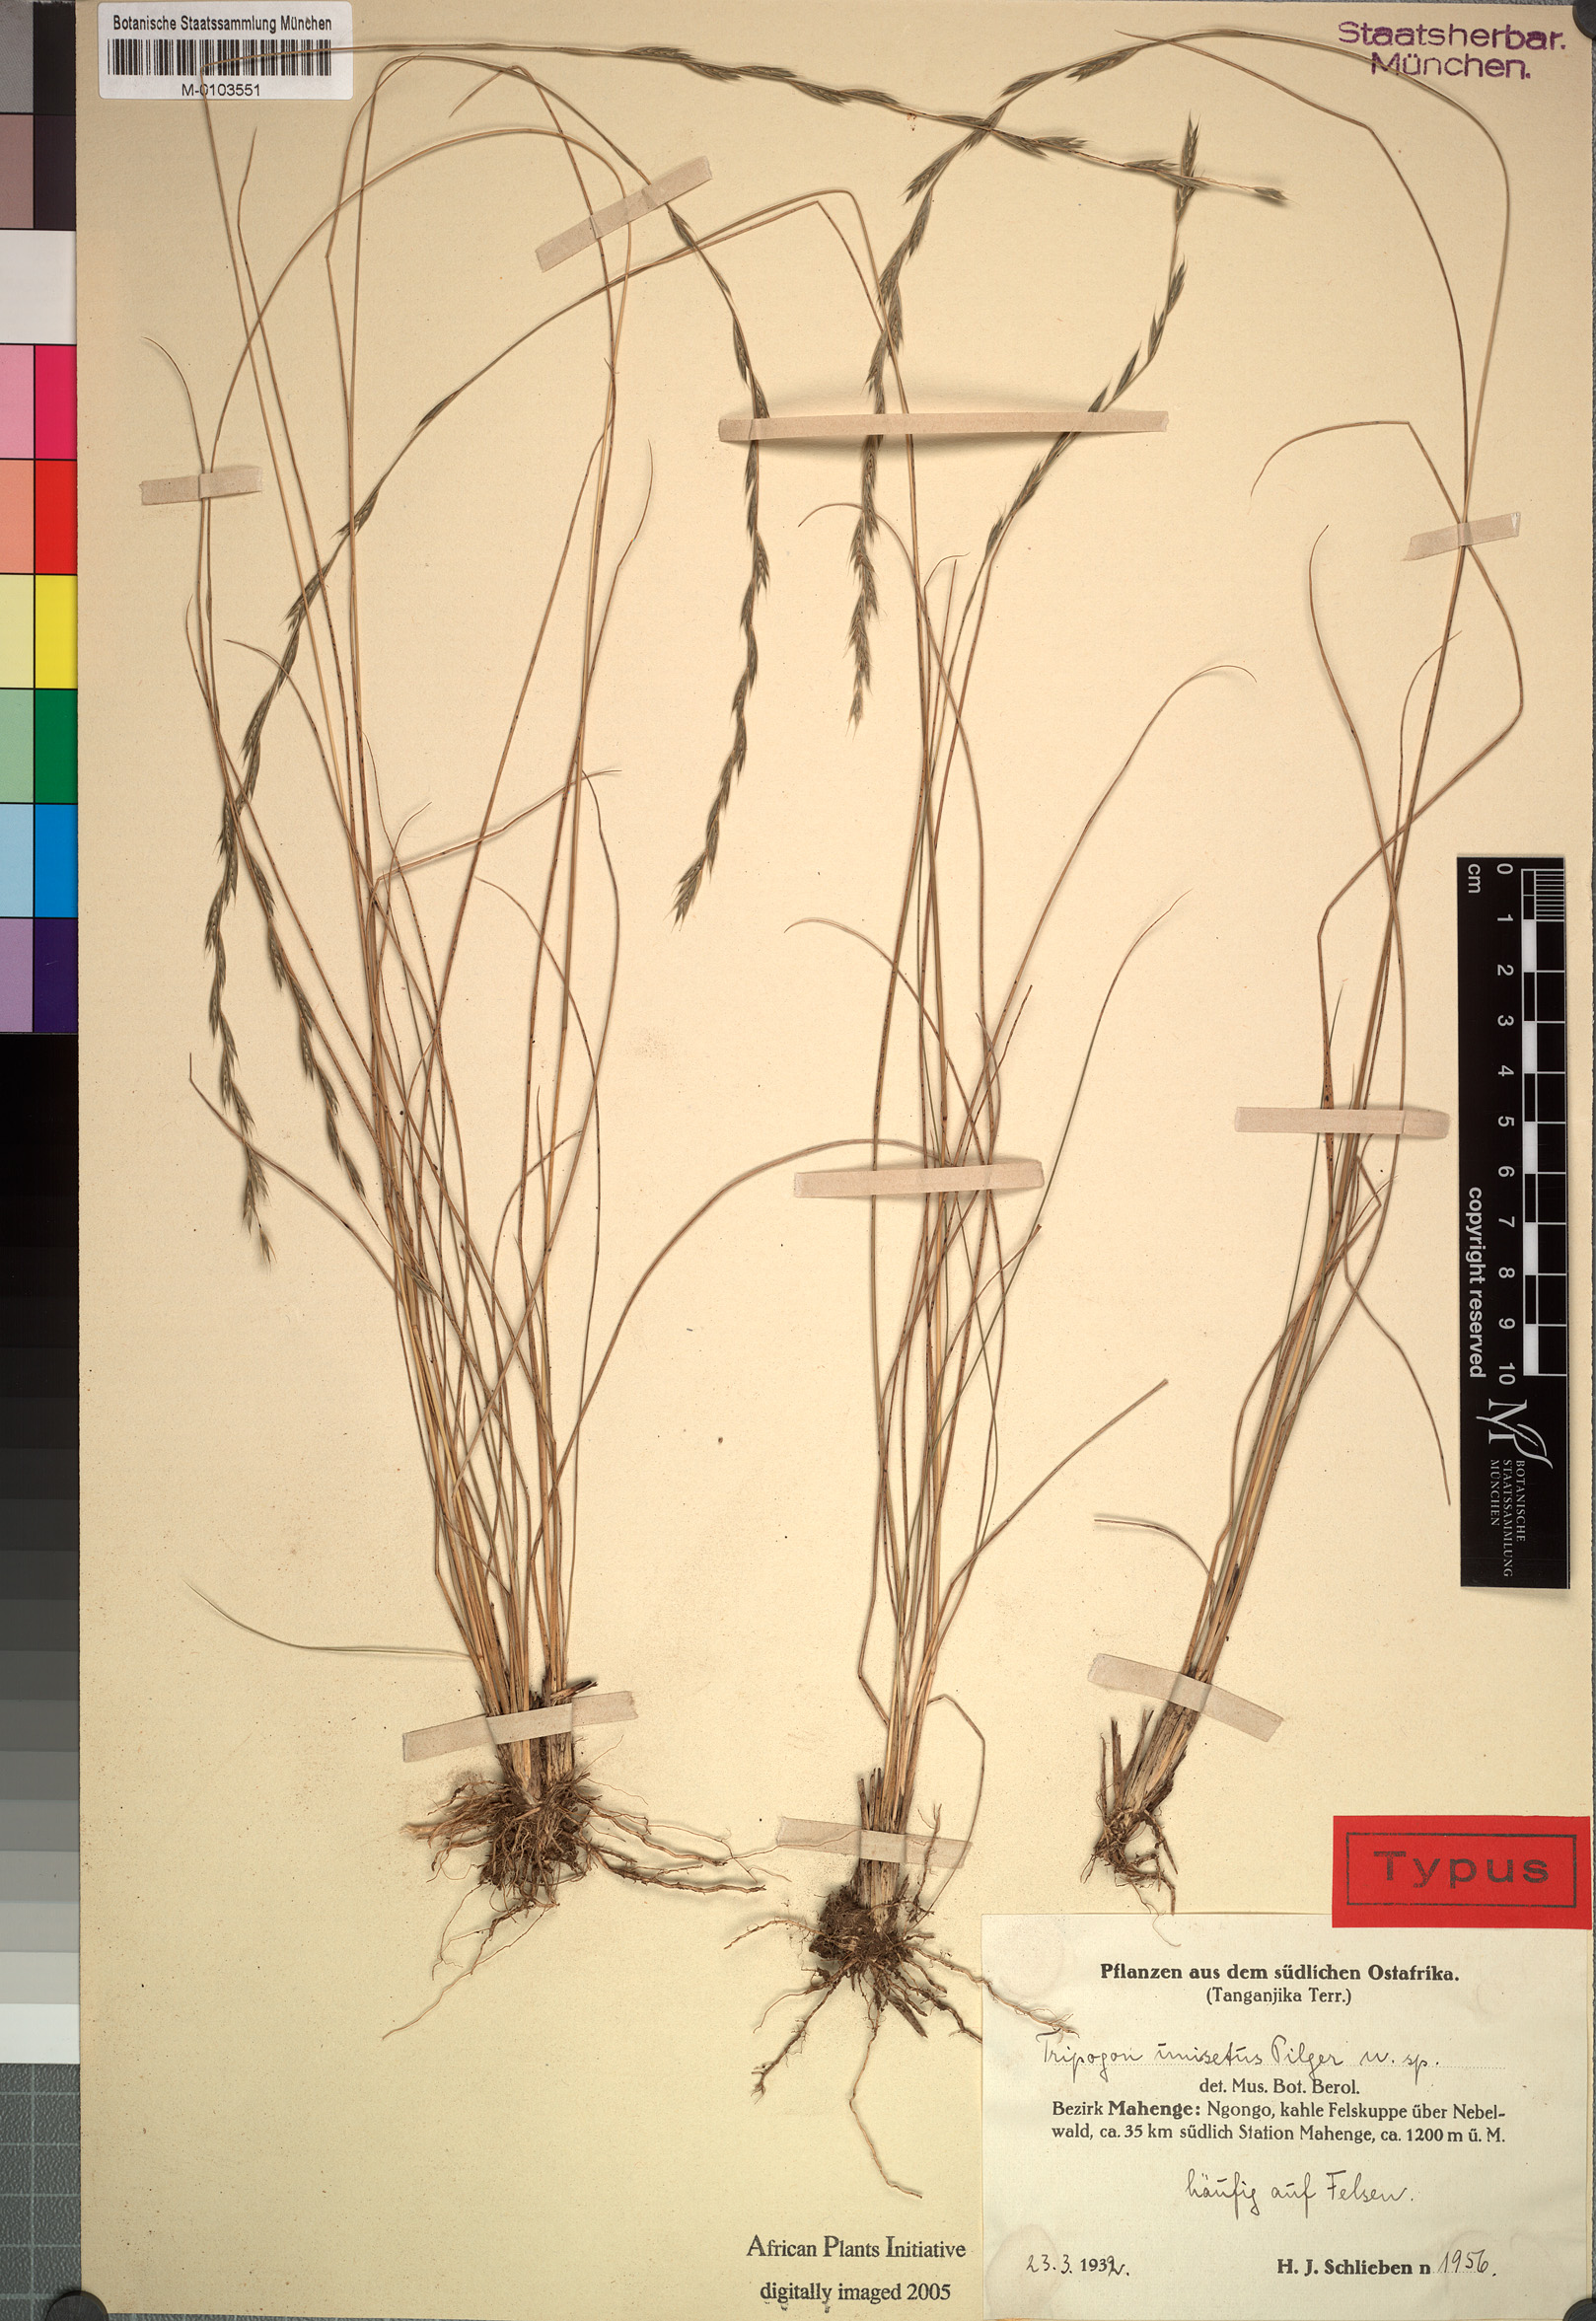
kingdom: Plantae
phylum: Tracheophyta
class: Liliopsida
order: Poales
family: Poaceae
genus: Tripogon
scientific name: Tripogon major
